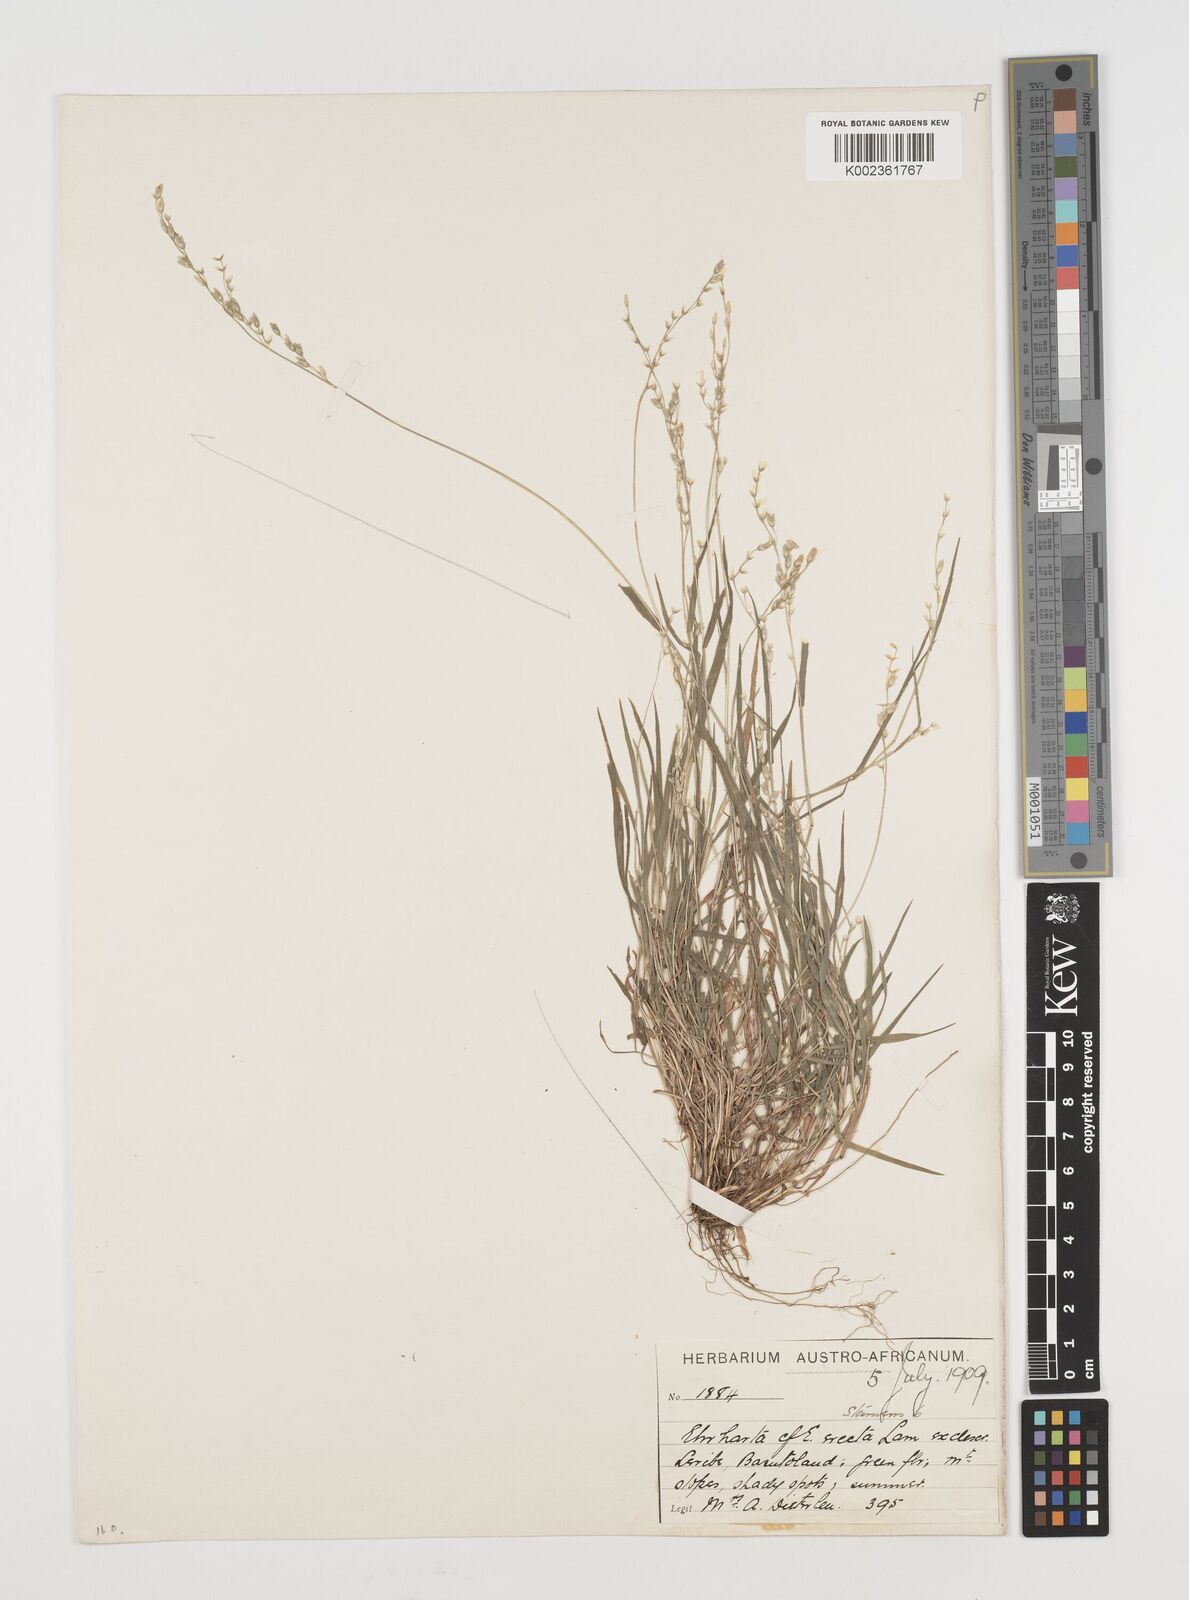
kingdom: Plantae
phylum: Tracheophyta
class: Liliopsida
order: Poales
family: Poaceae
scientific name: Poaceae
